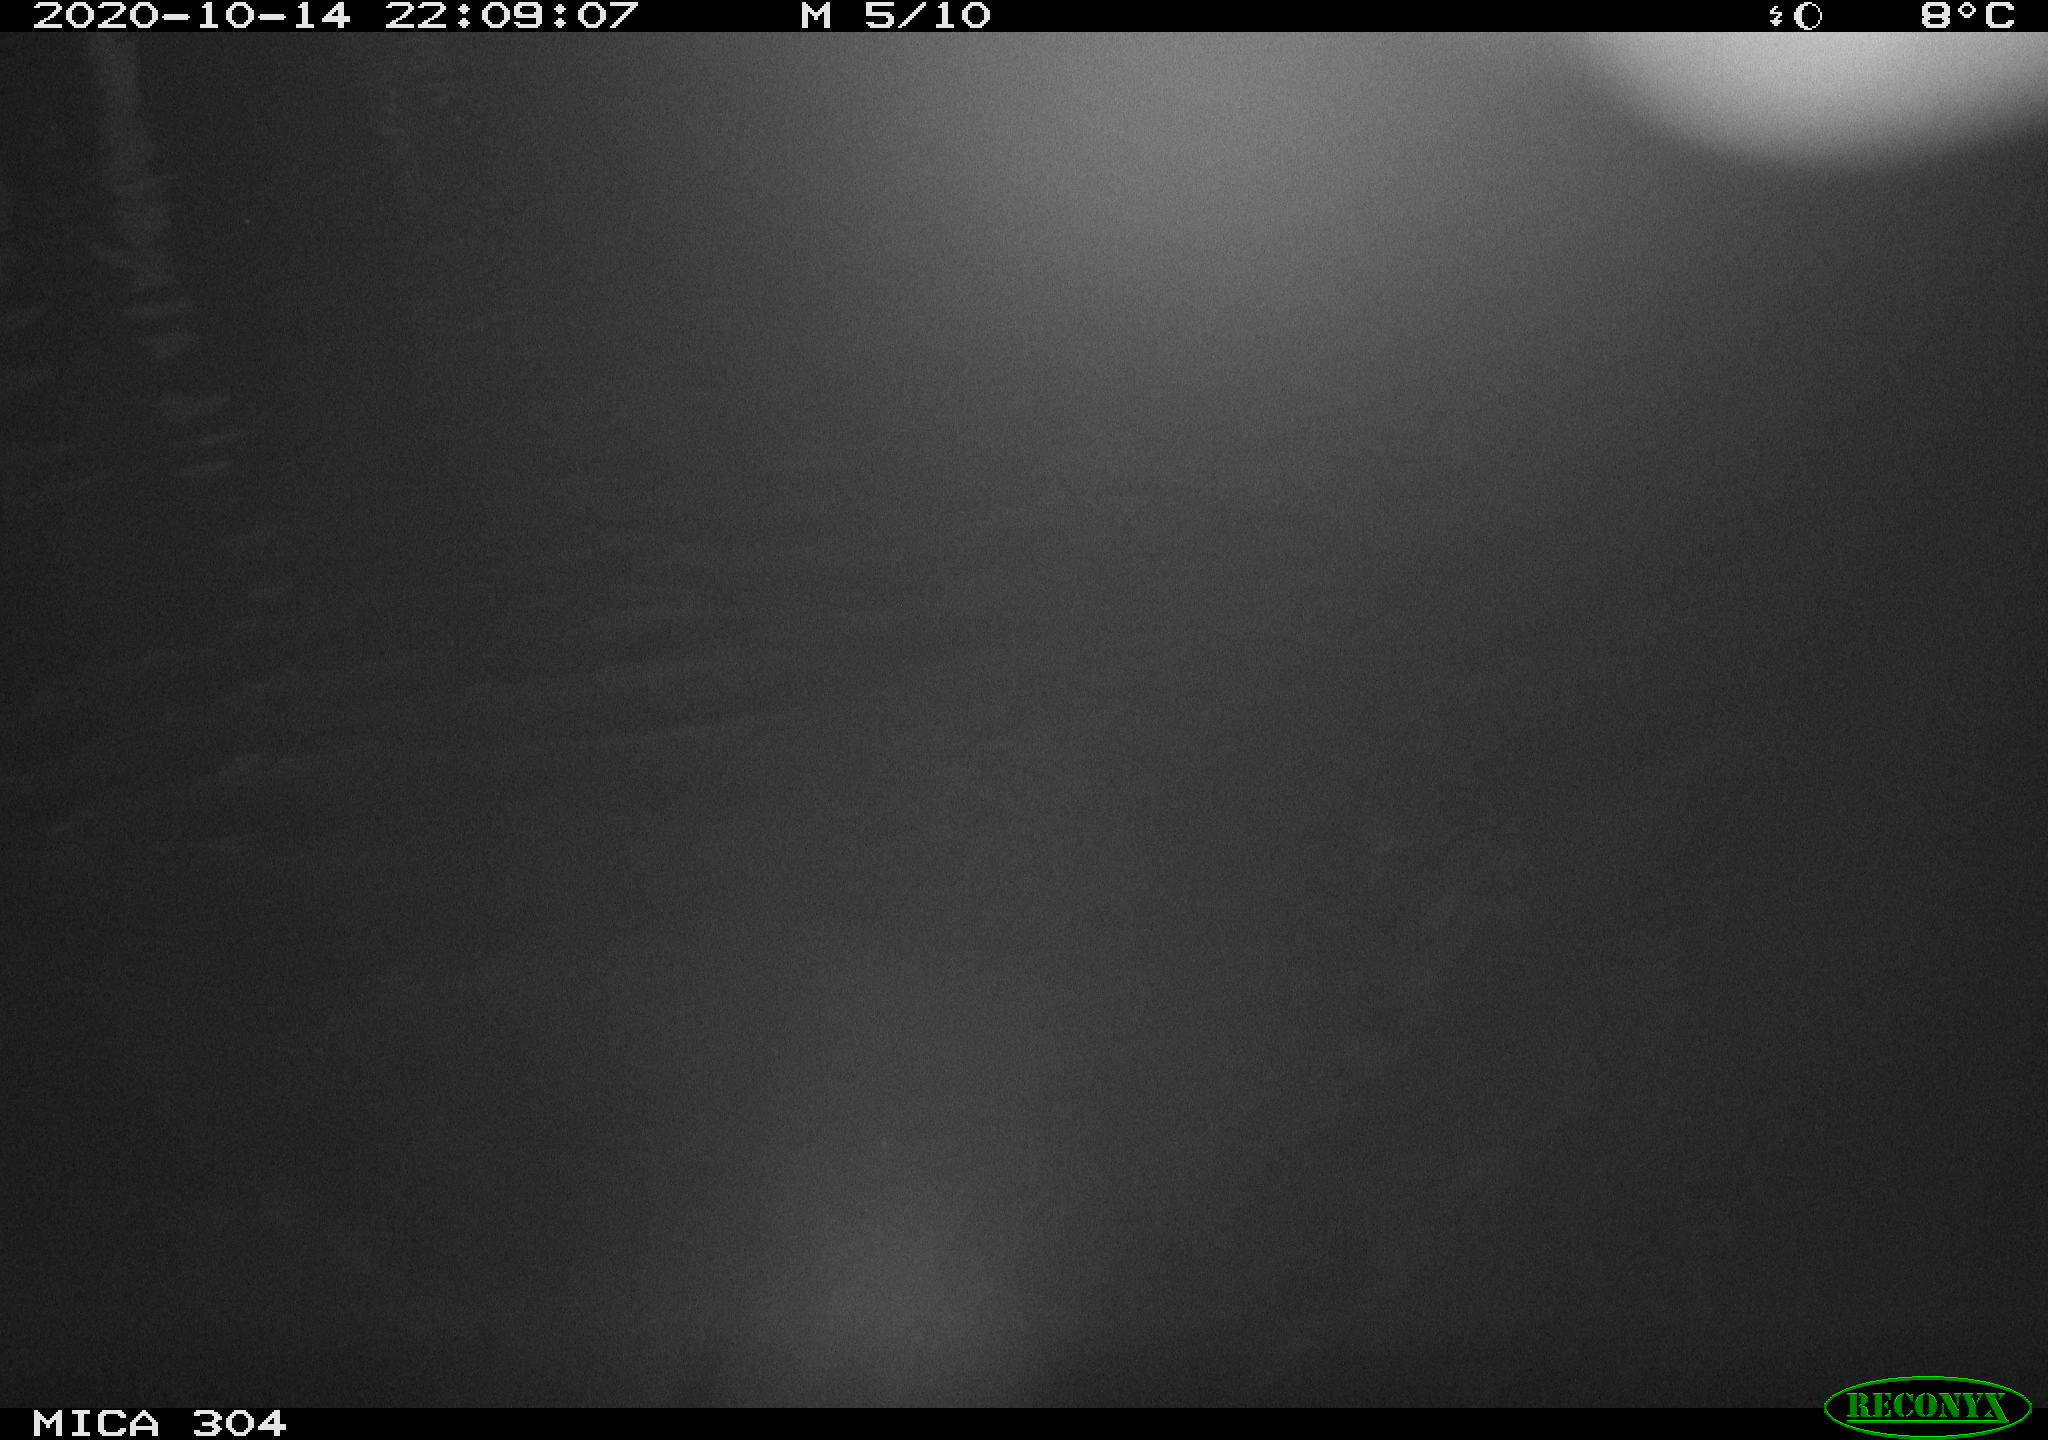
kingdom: Animalia
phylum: Chordata
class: Mammalia
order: Rodentia
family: Cricetidae
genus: Ondatra
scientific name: Ondatra zibethicus
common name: Muskrat
